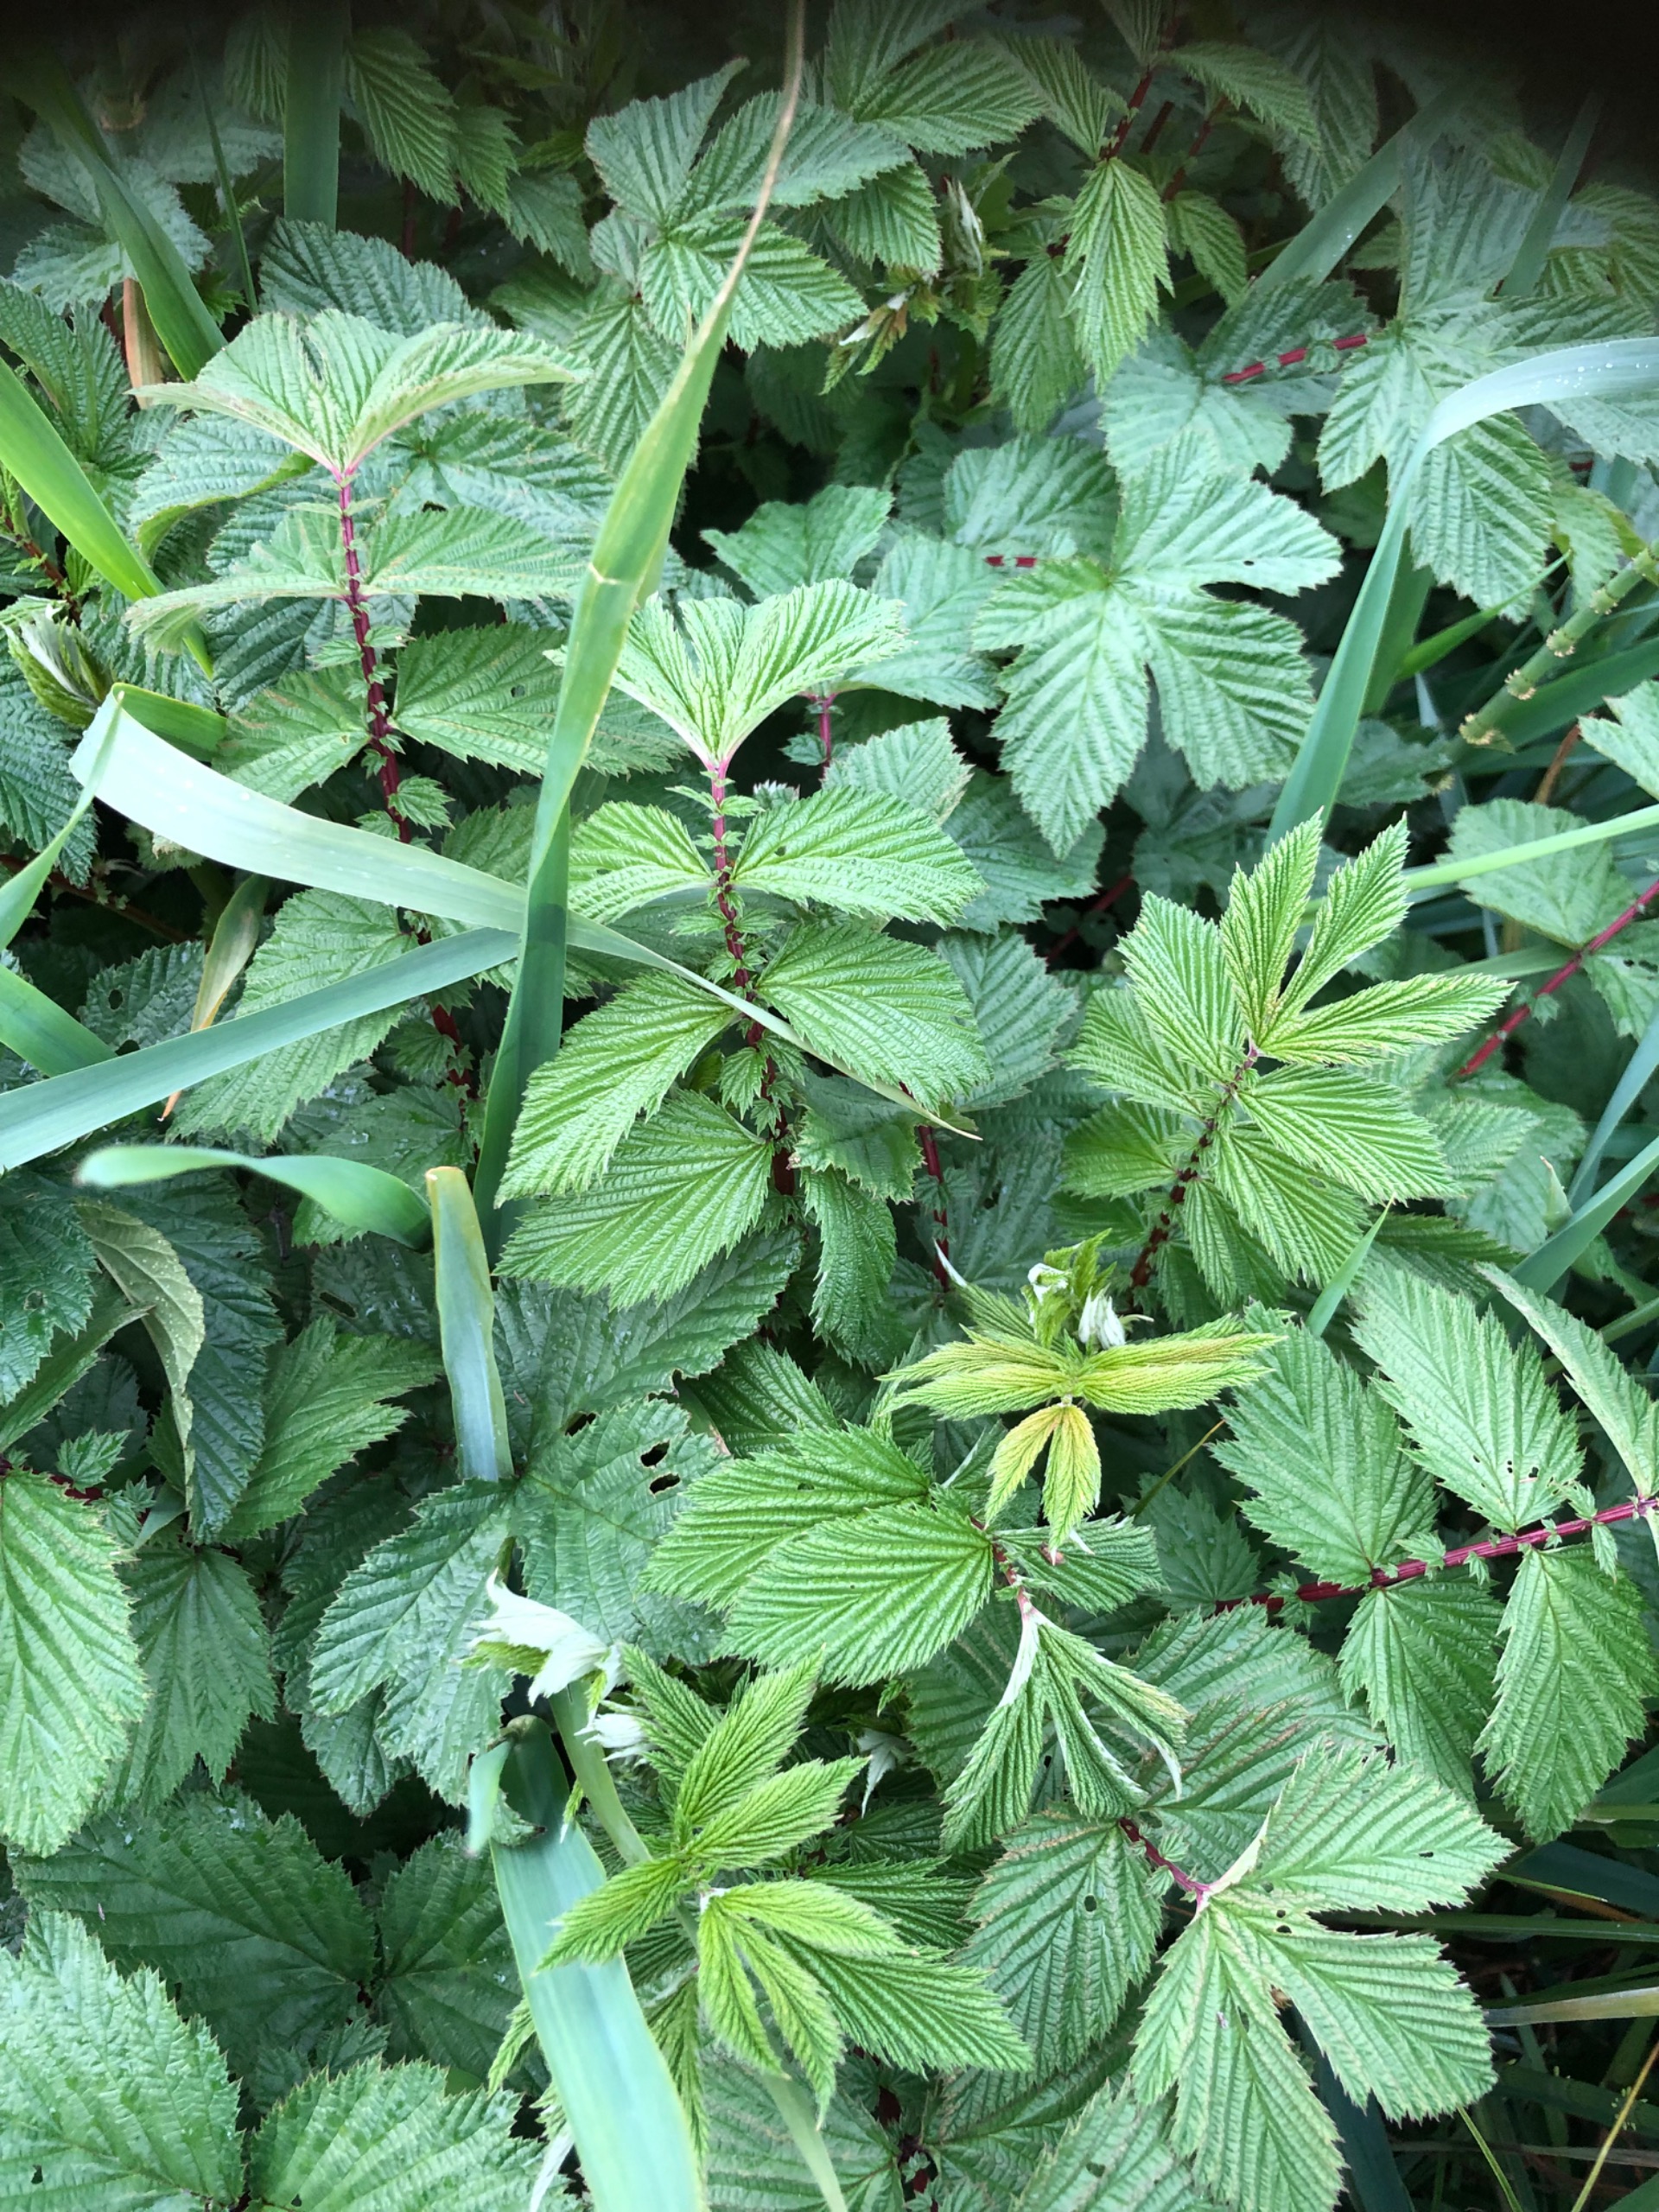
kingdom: Plantae
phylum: Tracheophyta
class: Magnoliopsida
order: Rosales
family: Rosaceae
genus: Filipendula
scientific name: Filipendula ulmaria
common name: Almindelig mjødurt
